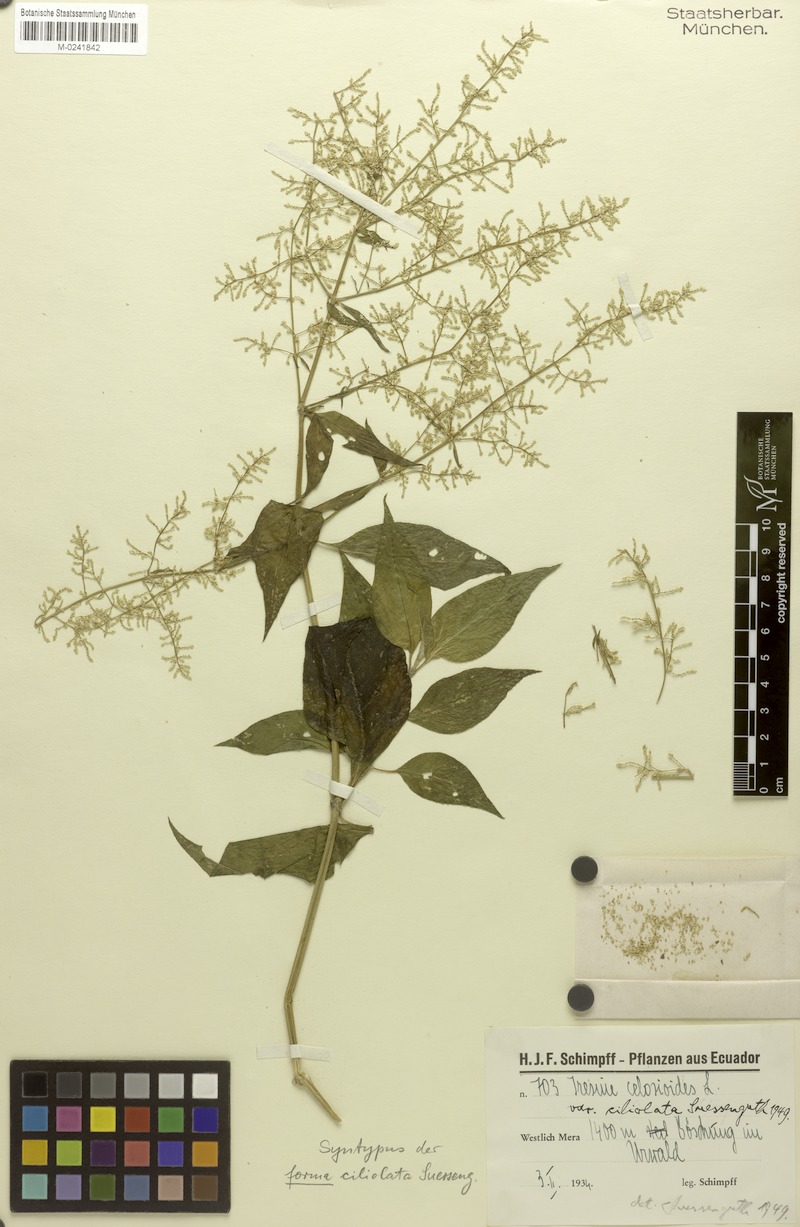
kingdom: Plantae
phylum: Tracheophyta
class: Magnoliopsida
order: Caryophyllales
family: Amaranthaceae
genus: Iresine
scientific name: Iresine diffusa
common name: Juba's-bush
